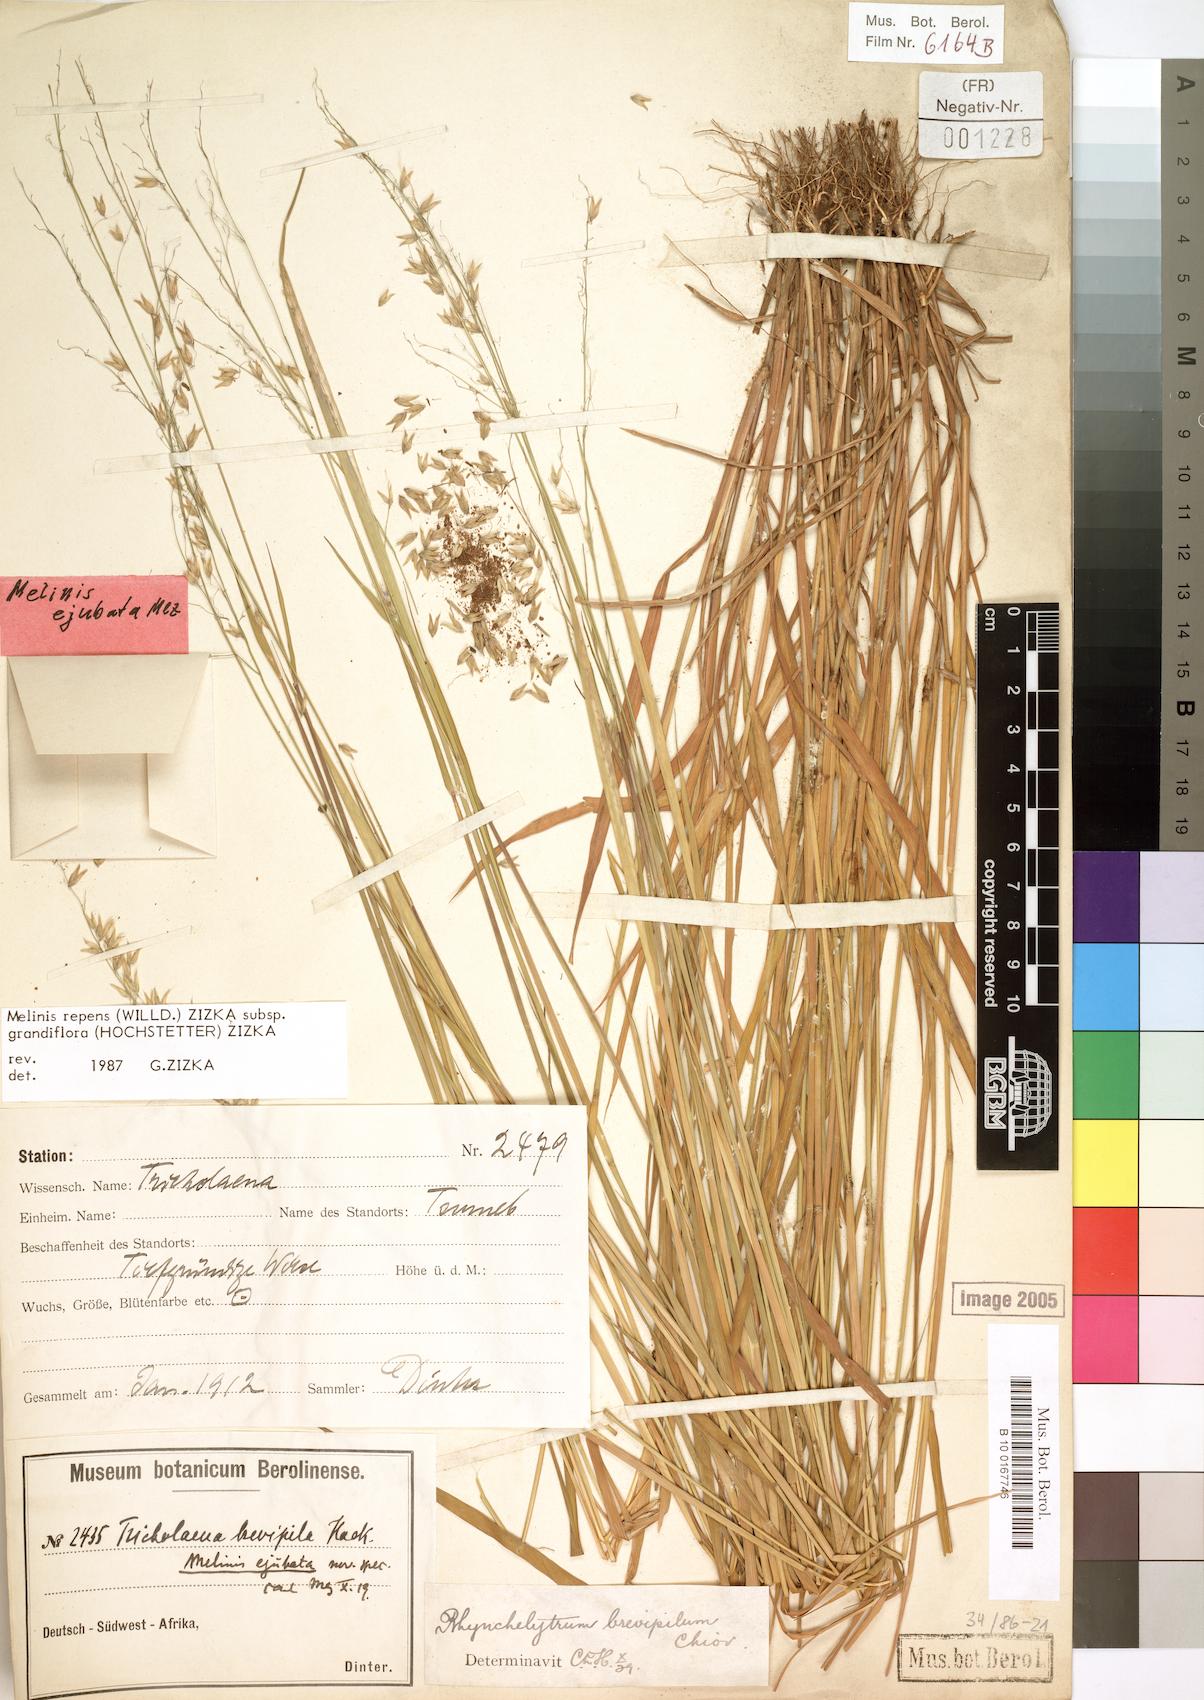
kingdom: Plantae
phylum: Tracheophyta
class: Liliopsida
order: Poales
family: Poaceae
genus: Melinis
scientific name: Melinis repens
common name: Rose natal grass
